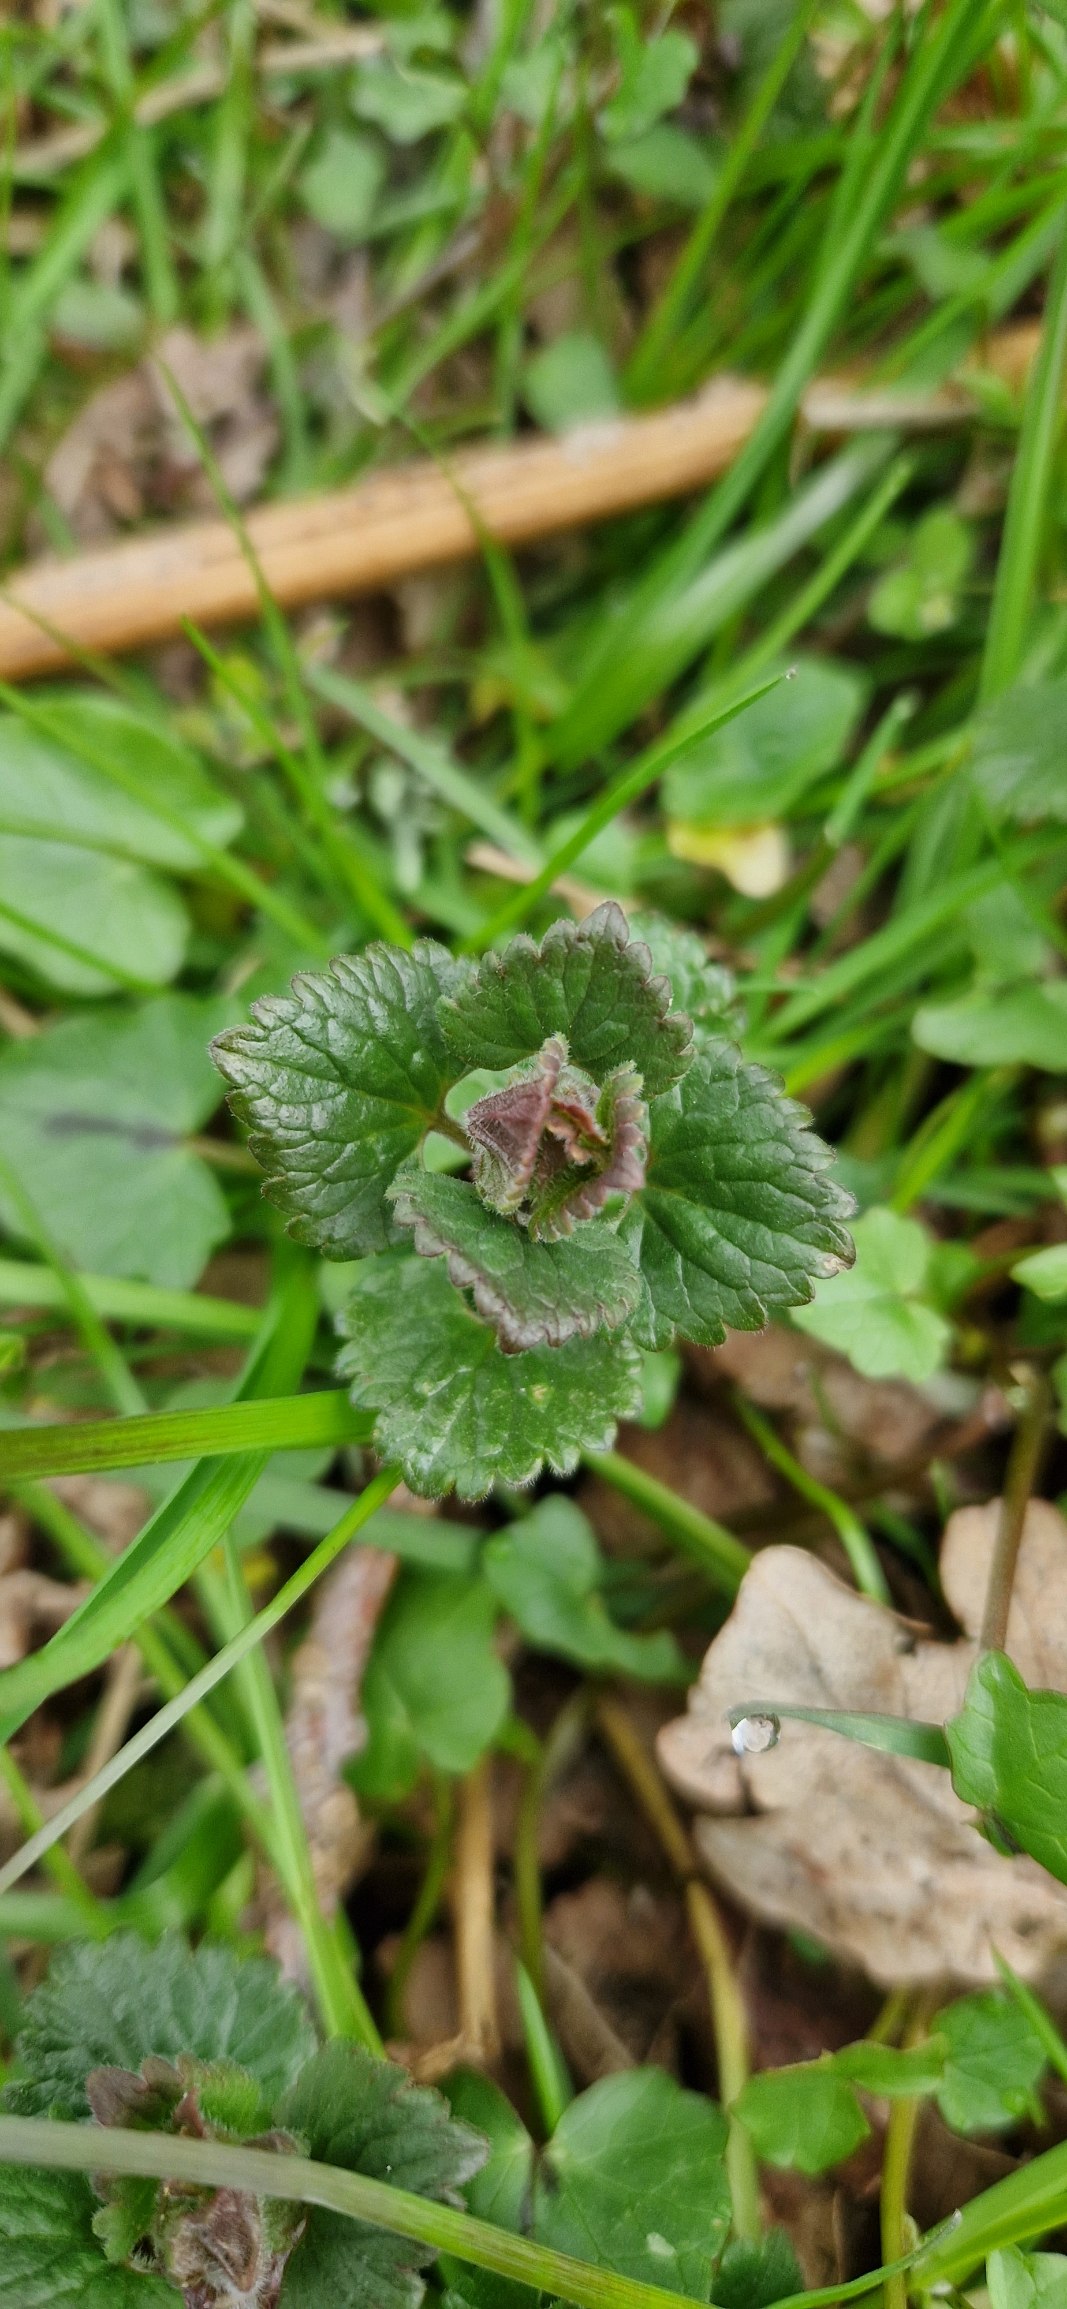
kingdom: Plantae
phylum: Tracheophyta
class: Magnoliopsida
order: Lamiales
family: Lamiaceae
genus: Glechoma
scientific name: Glechoma hederacea
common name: Korsknap
